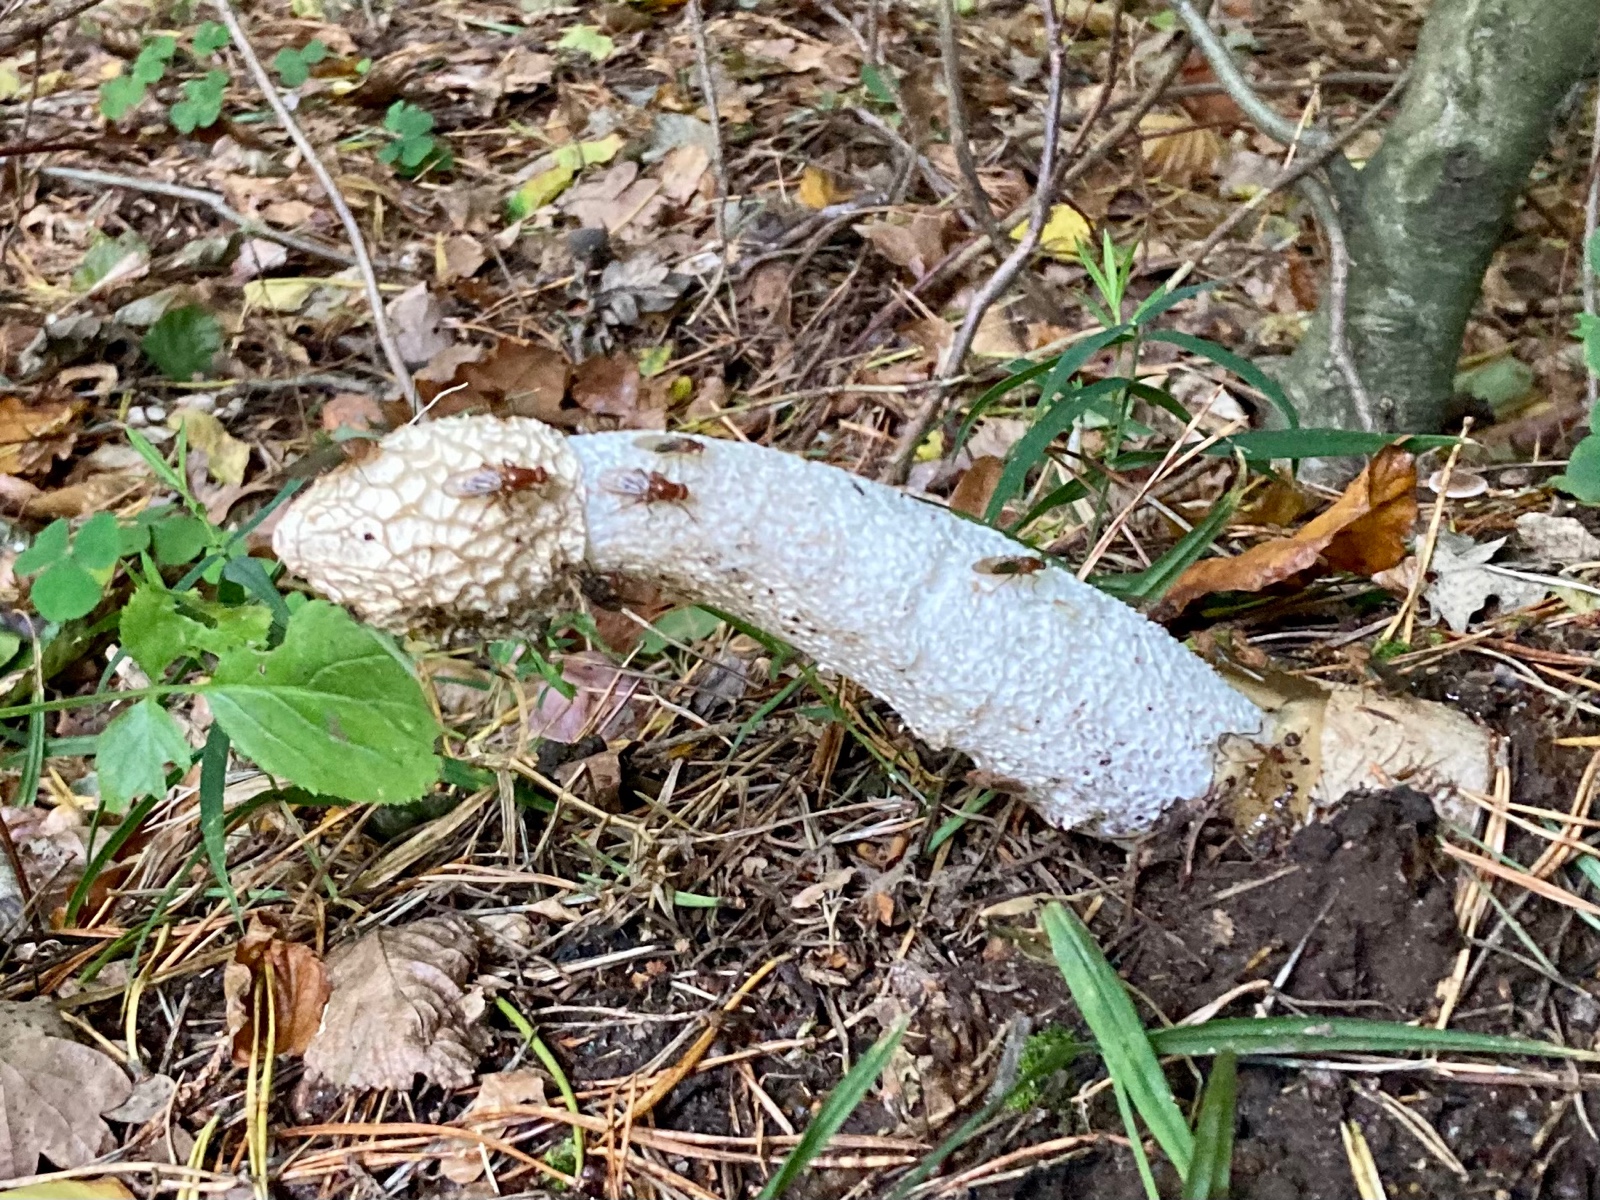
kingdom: Fungi
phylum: Basidiomycota
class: Agaricomycetes
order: Phallales
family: Phallaceae
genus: Phallus
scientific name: Phallus impudicus
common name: almindelig stinksvamp
